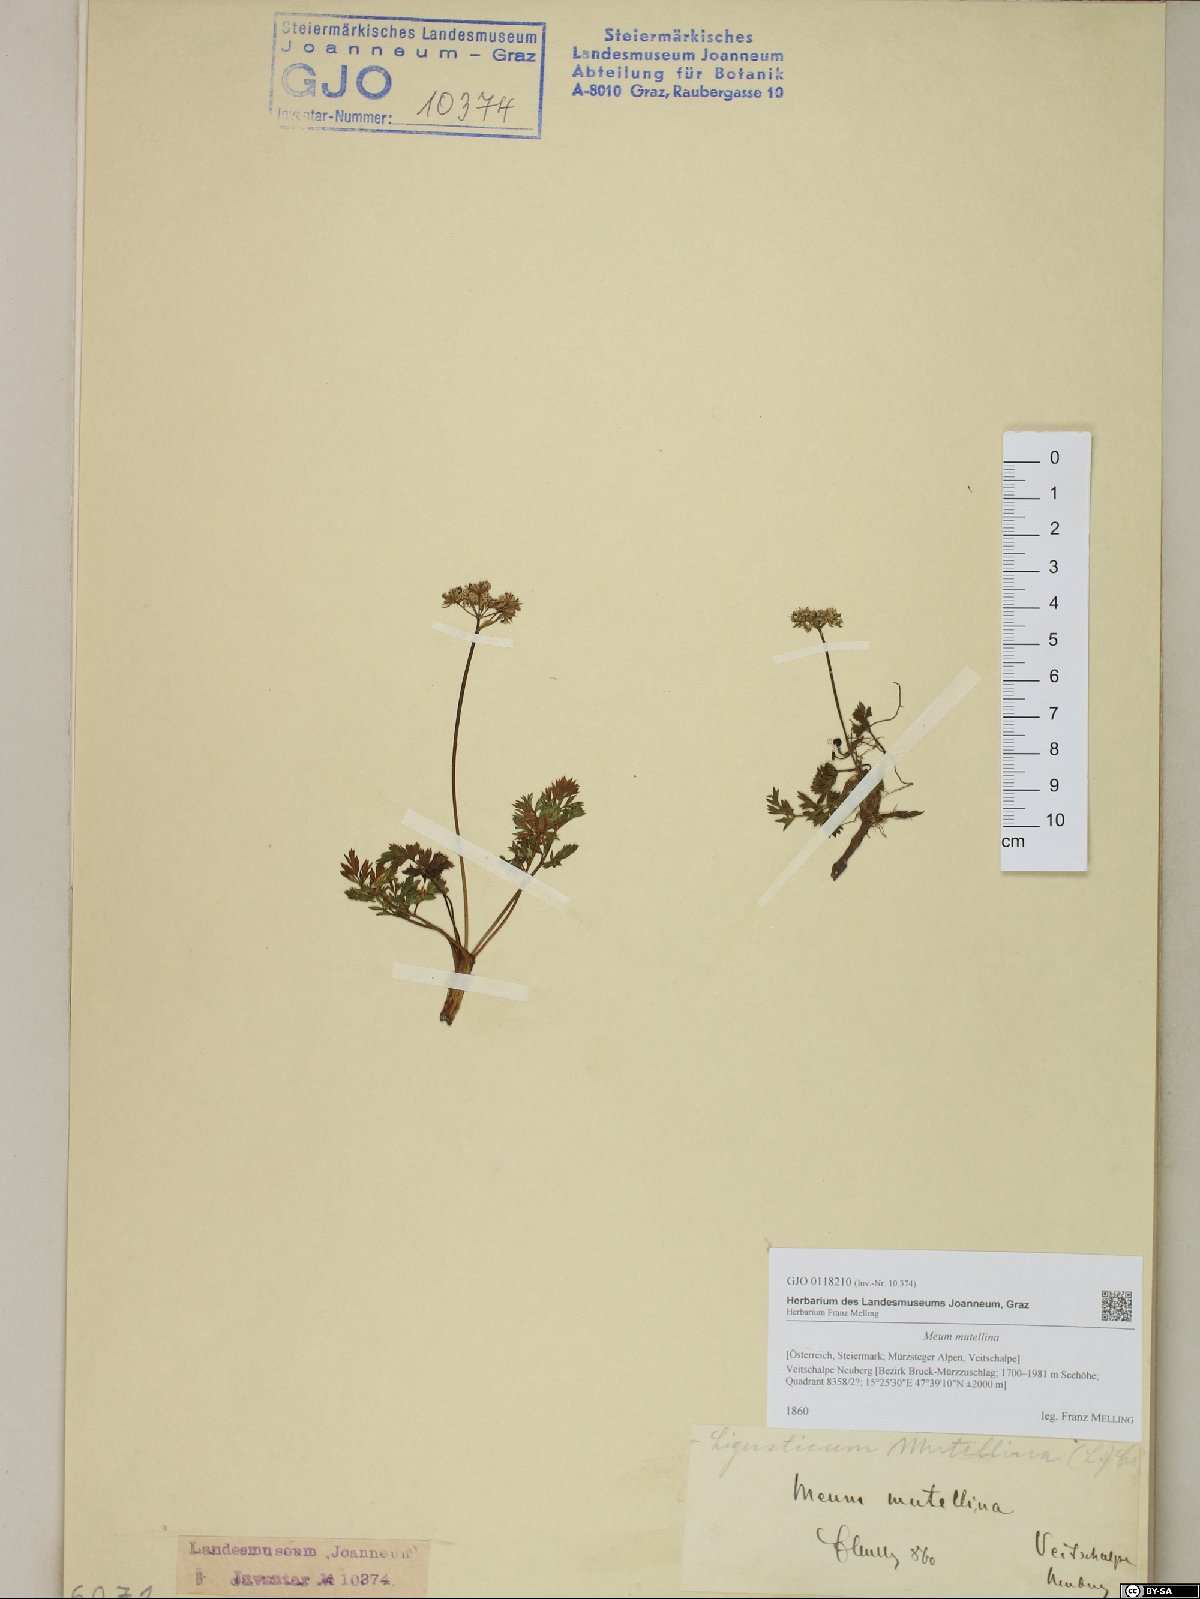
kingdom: Plantae
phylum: Tracheophyta
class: Magnoliopsida
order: Apiales
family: Apiaceae
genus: Mutellina
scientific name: Mutellina adonidifolia
